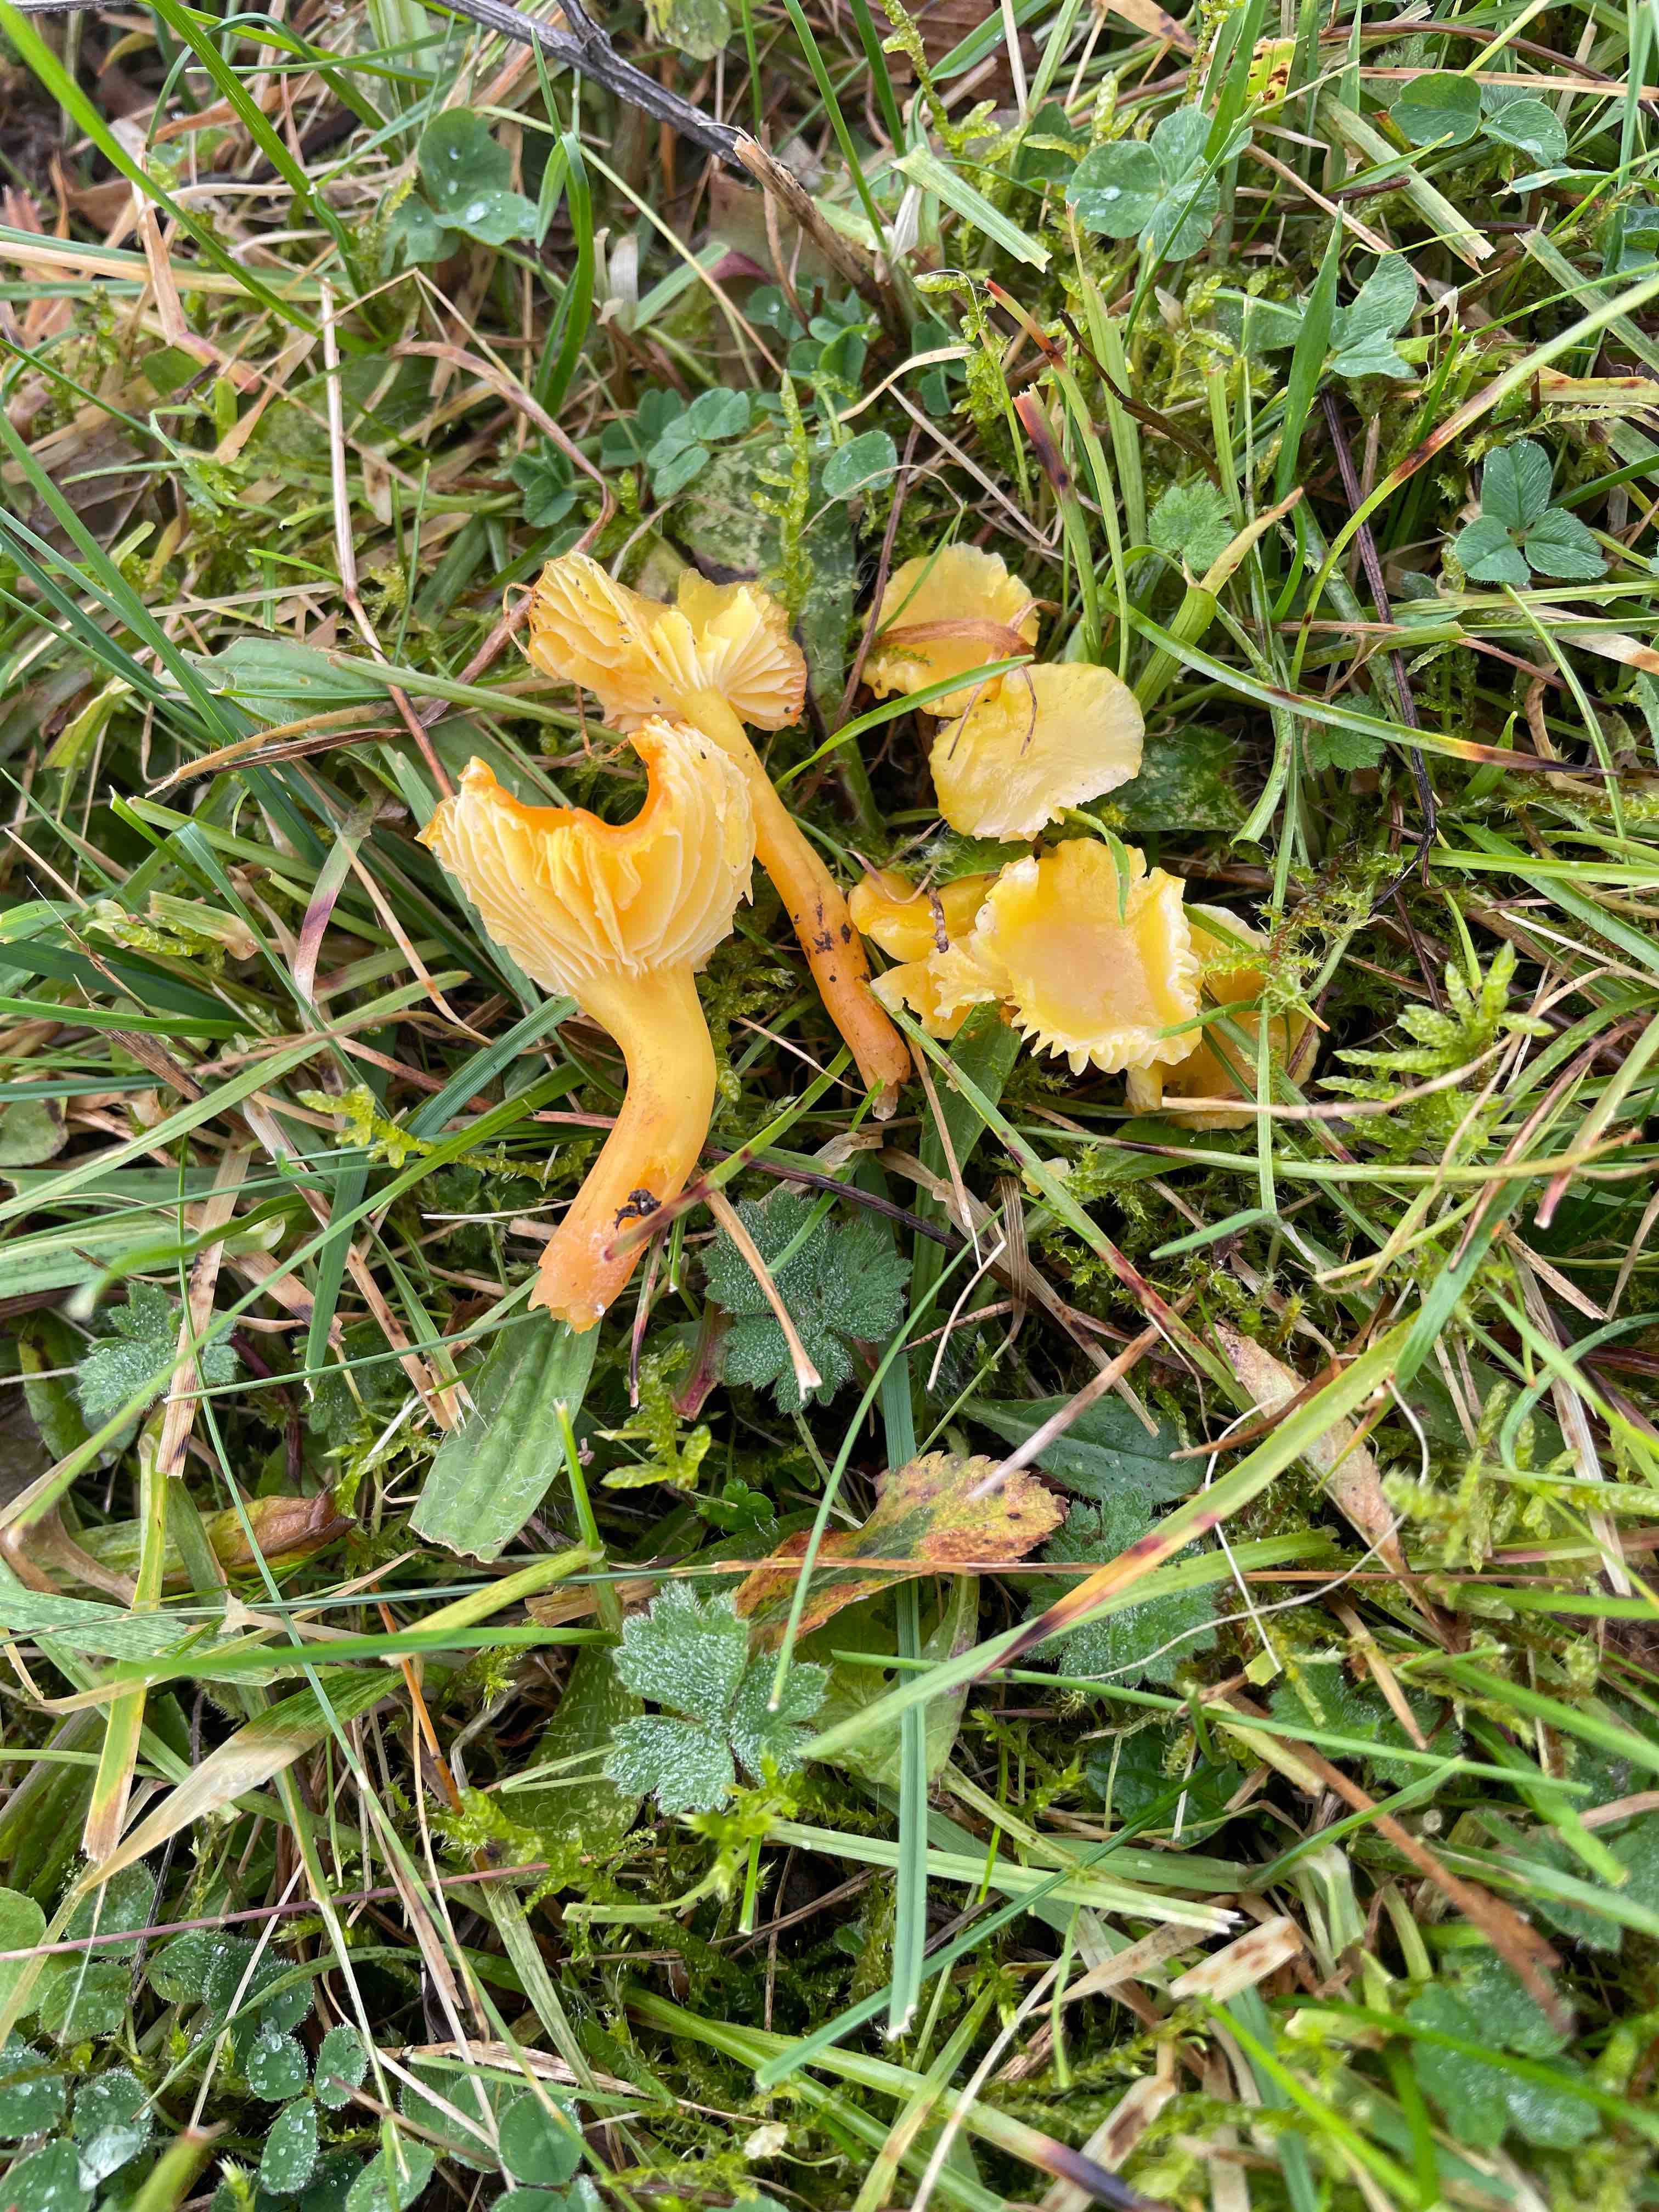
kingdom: Fungi
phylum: Basidiomycota
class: Agaricomycetes
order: Agaricales
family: Hygrophoraceae
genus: Hygrocybe
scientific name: Hygrocybe ceracea
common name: voksgul vokshat
